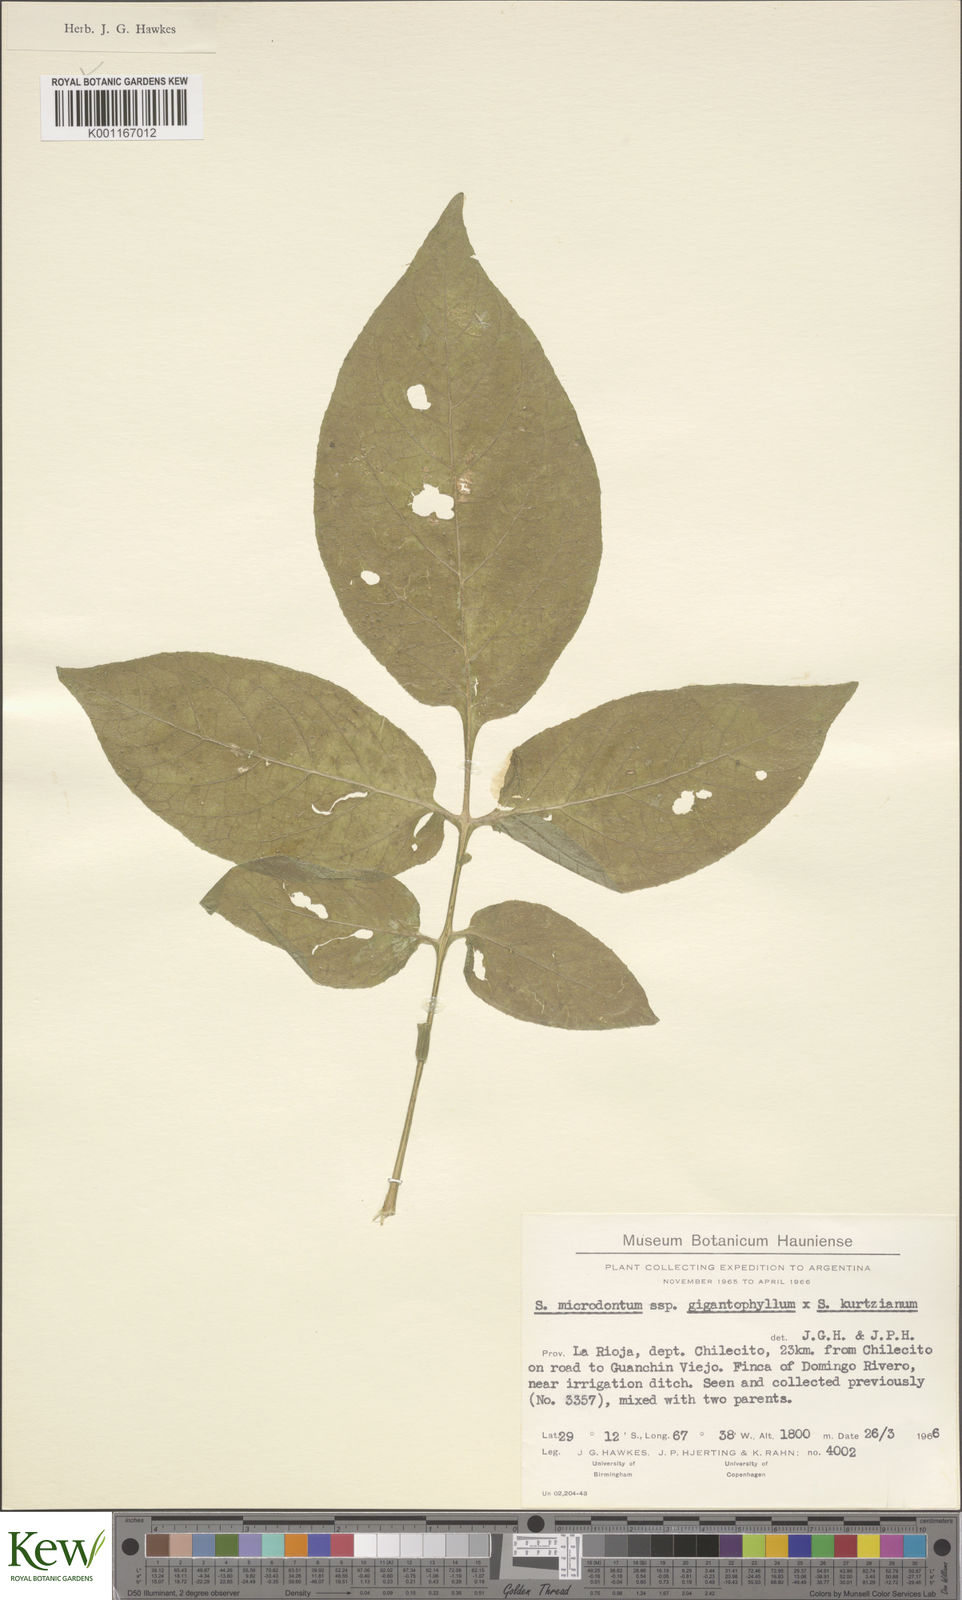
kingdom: Plantae
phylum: Tracheophyta
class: Magnoliopsida
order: Solanales
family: Solanaceae
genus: Solanum
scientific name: Solanum rechei
